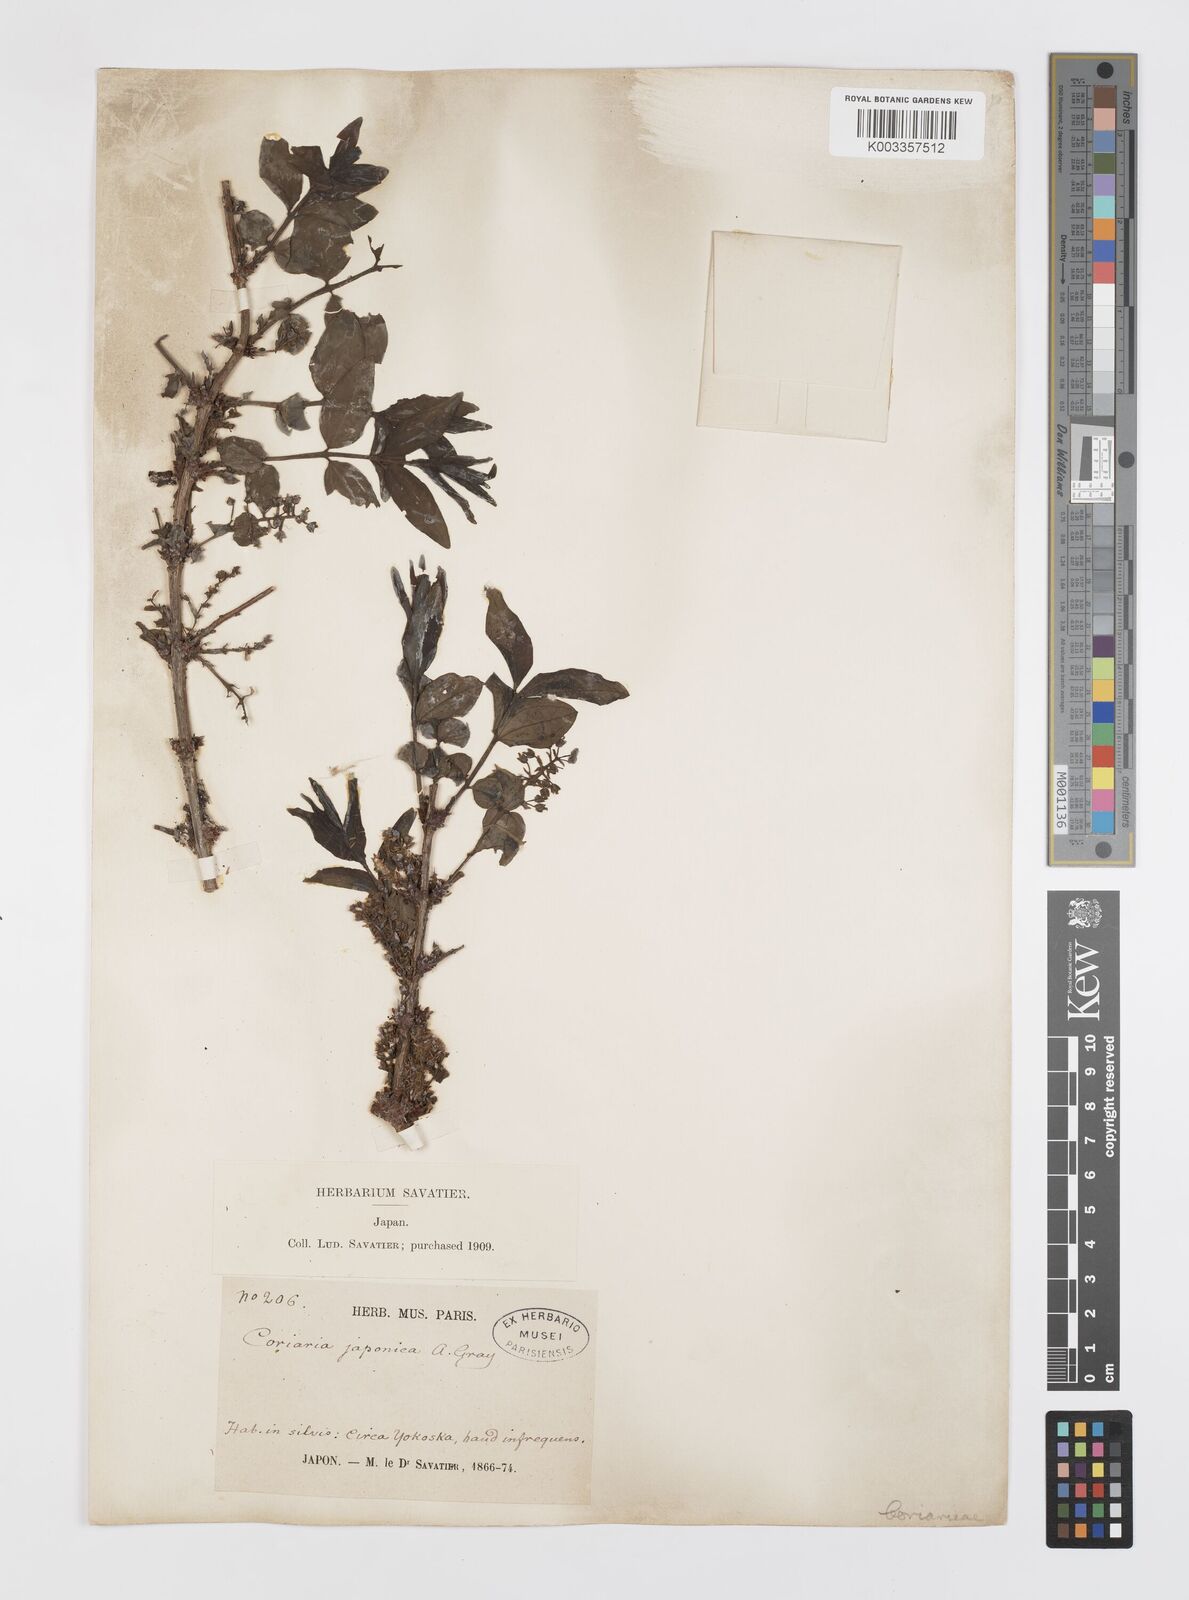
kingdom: Plantae
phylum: Tracheophyta
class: Magnoliopsida
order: Cucurbitales
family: Coriariaceae
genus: Coriaria
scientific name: Coriaria japonica
